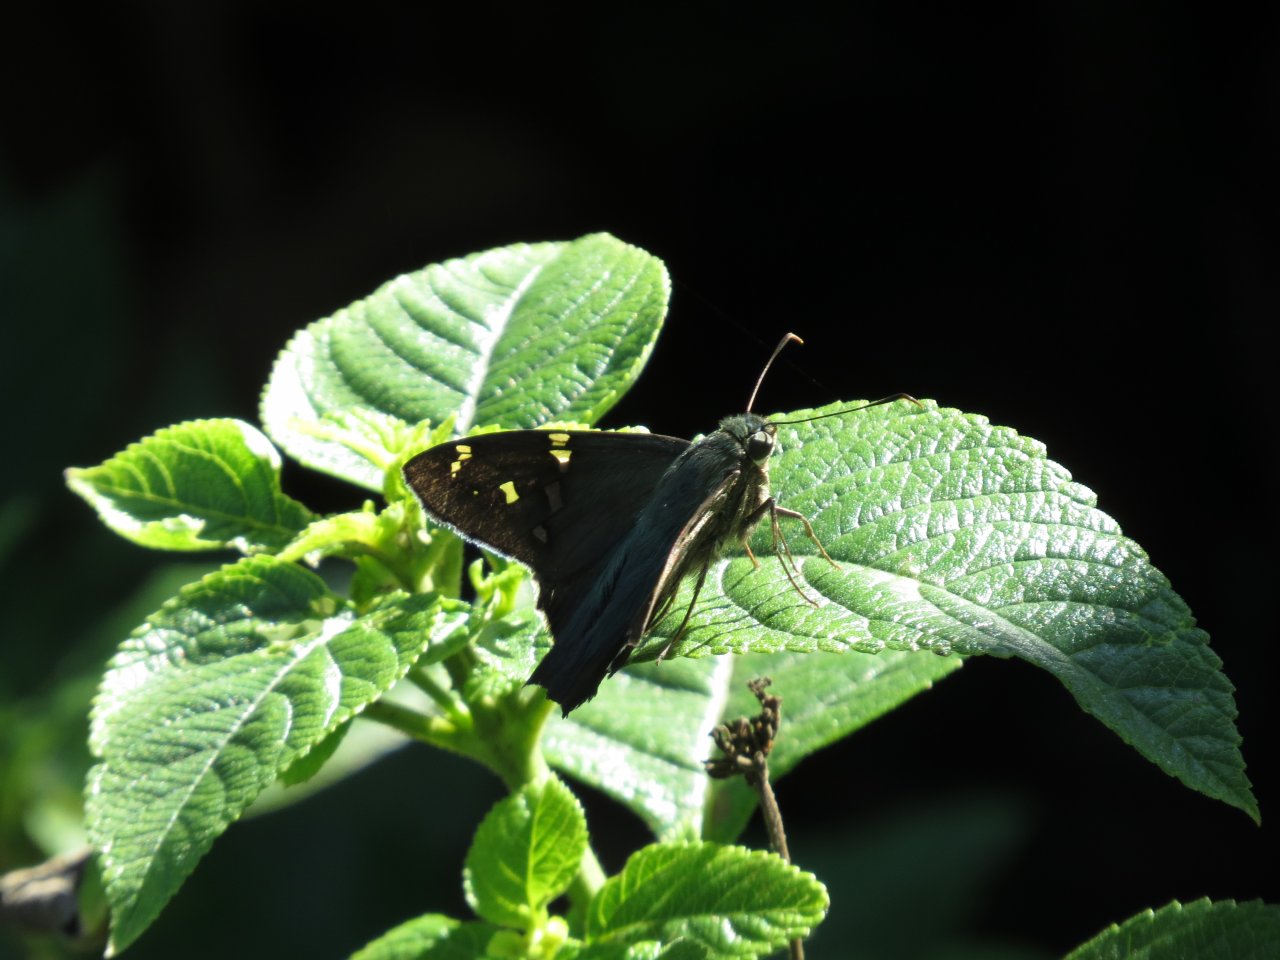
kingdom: Animalia
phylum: Arthropoda
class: Insecta
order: Lepidoptera
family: Hesperiidae
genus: Urbanus
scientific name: Urbanus proteus
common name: Long-tailed Skipper
